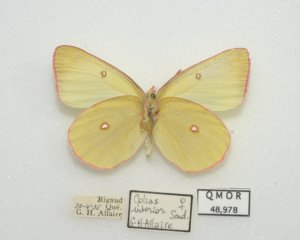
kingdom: Animalia
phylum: Arthropoda
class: Insecta
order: Lepidoptera
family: Pieridae
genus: Colias
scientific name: Colias interior
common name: Pink-edged Sulphur
